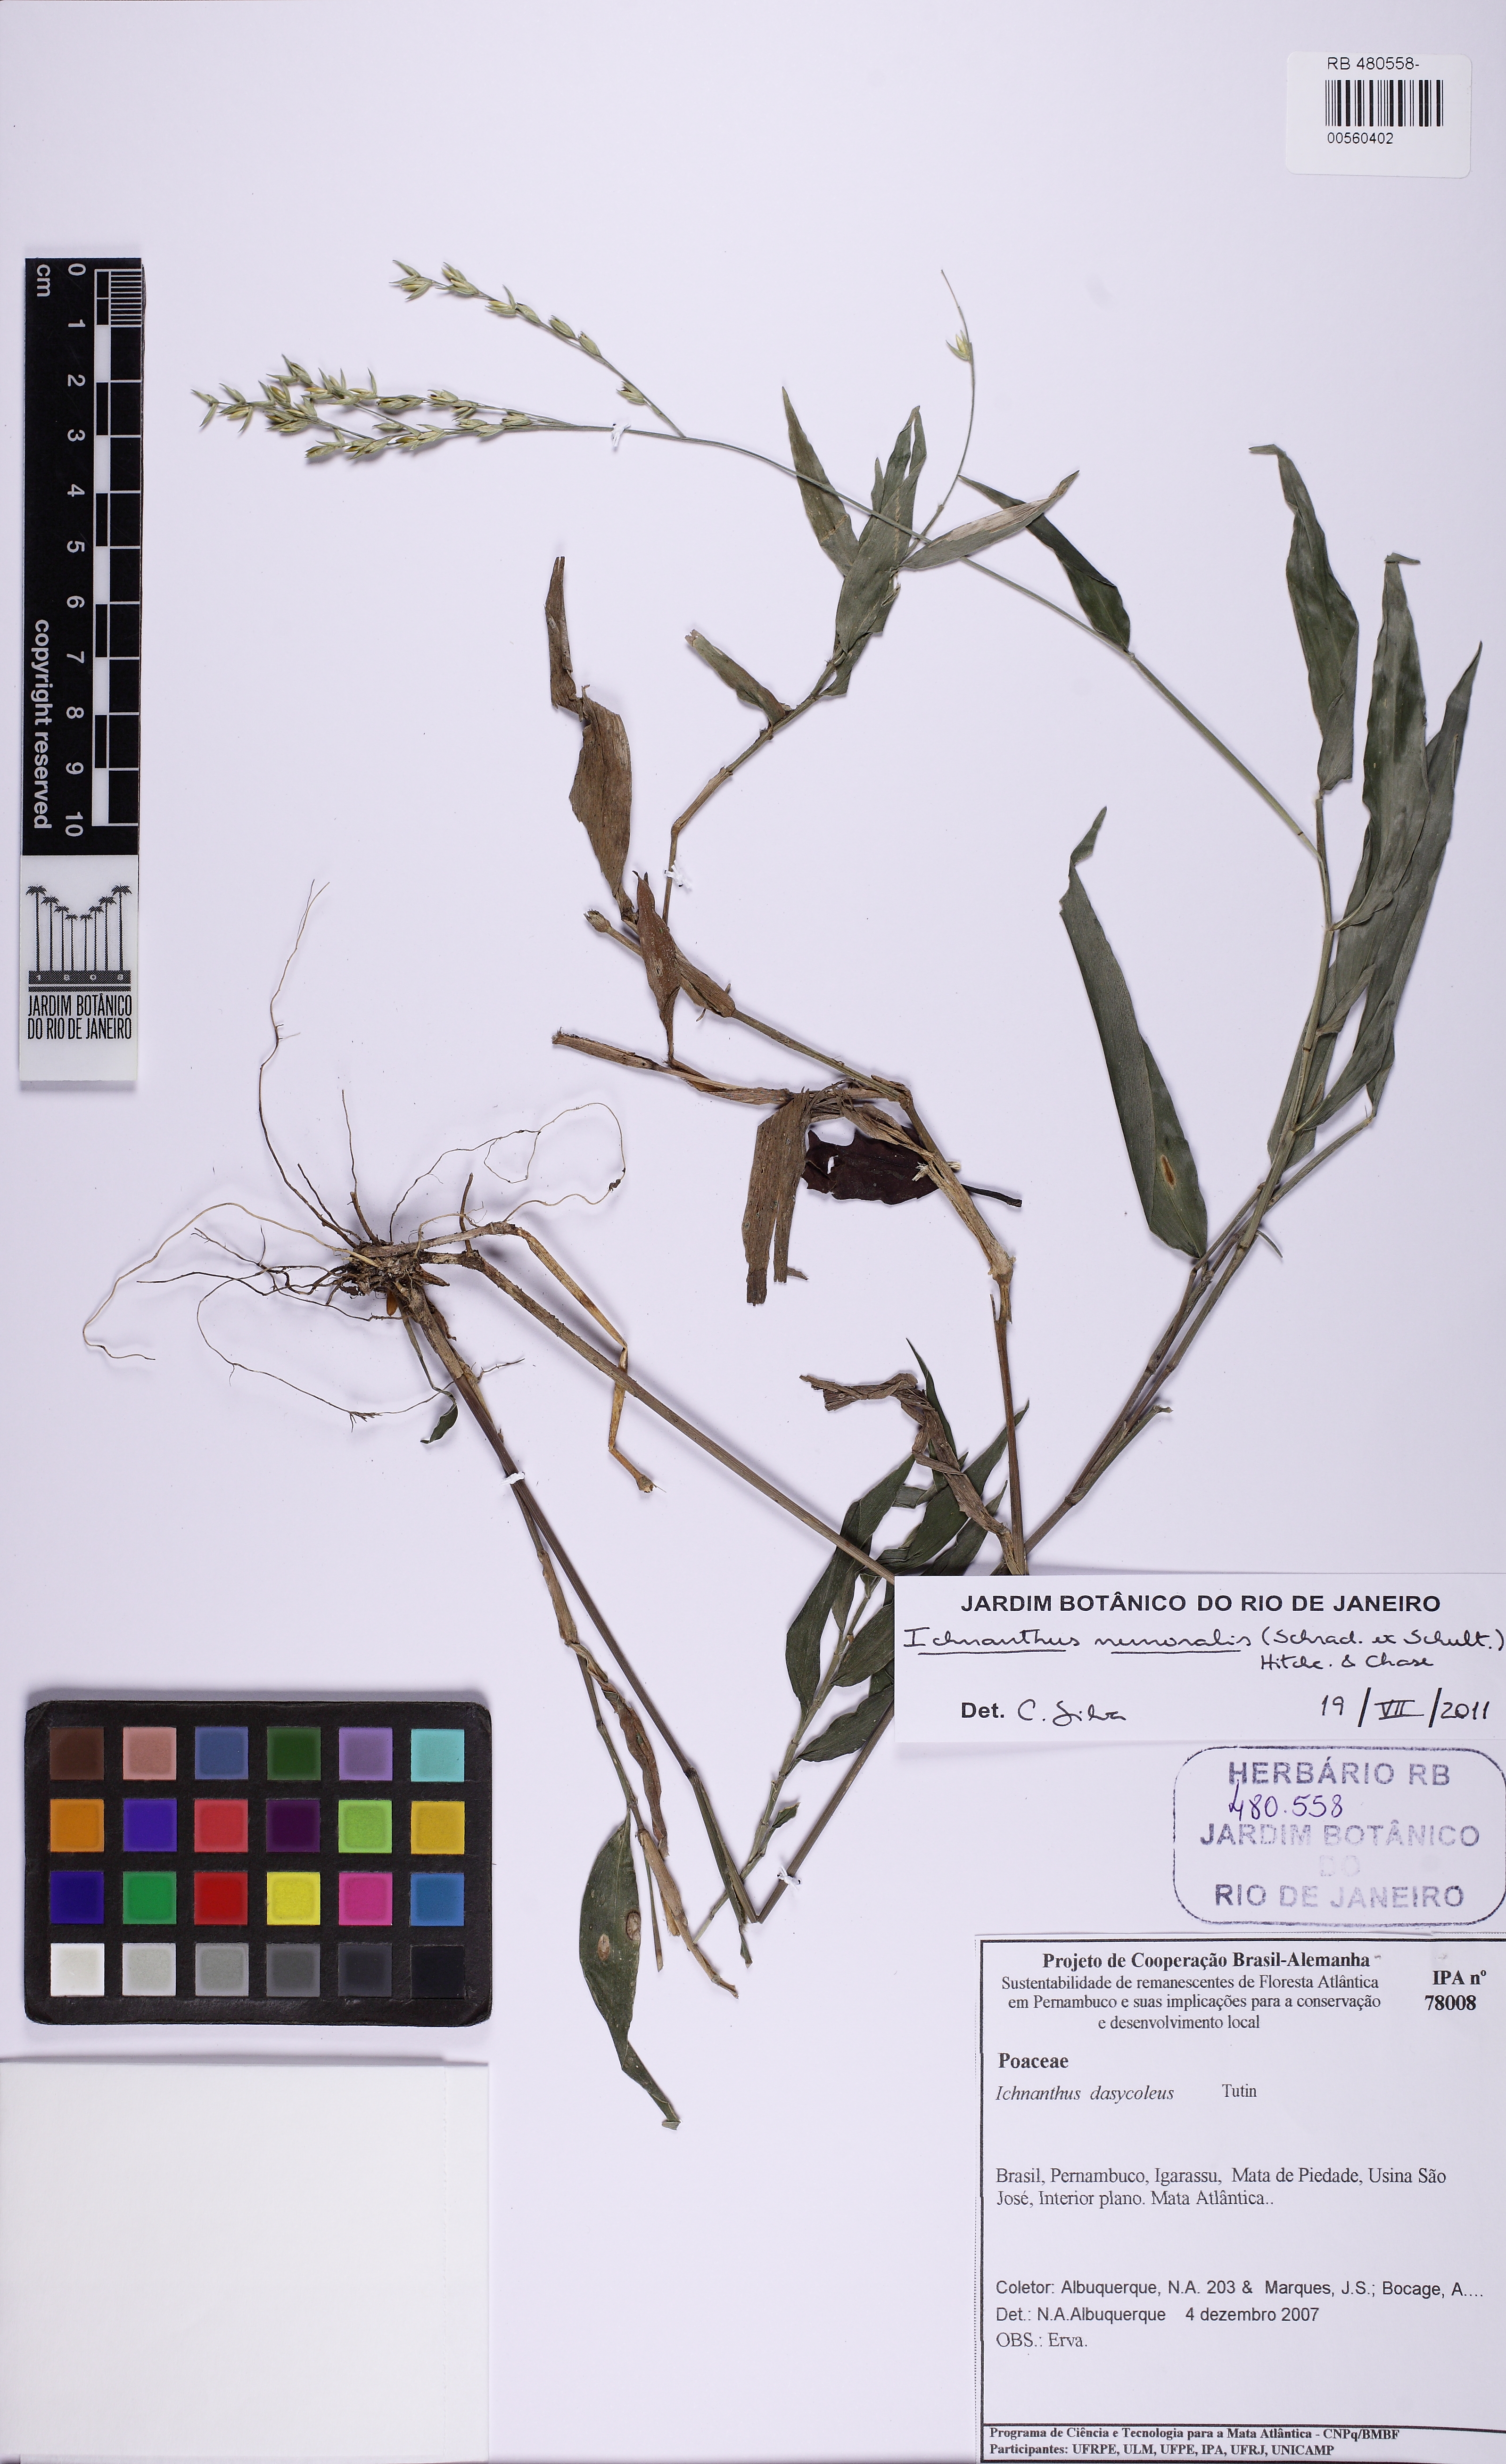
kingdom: Plantae
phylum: Tracheophyta
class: Liliopsida
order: Poales
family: Poaceae
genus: Ichnanthus
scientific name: Ichnanthus nemoralis
